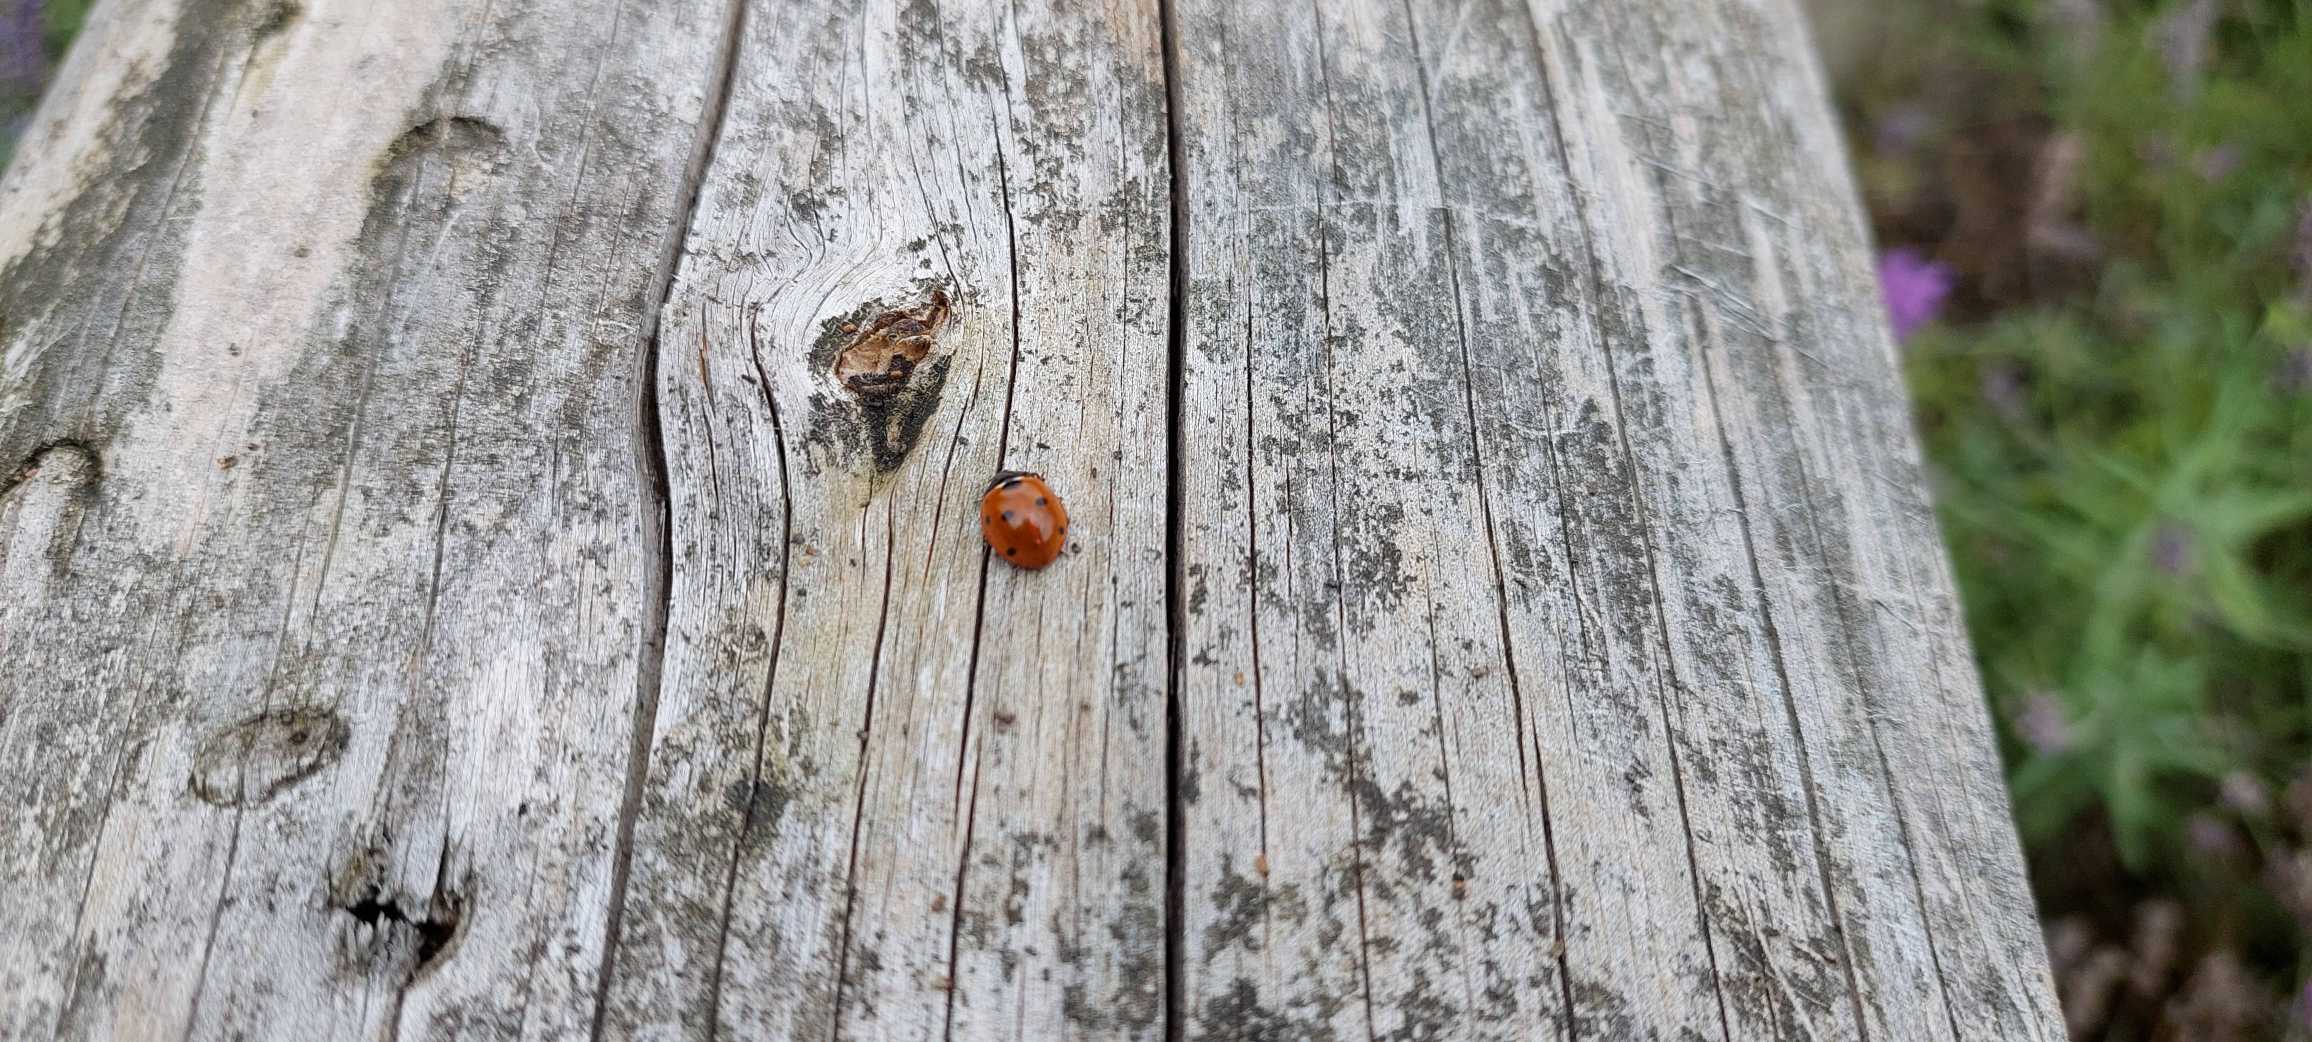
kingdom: Animalia
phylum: Arthropoda
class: Insecta
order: Coleoptera
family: Coccinellidae
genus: Coccinella
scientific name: Coccinella septempunctata
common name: Syvplettet mariehøne
